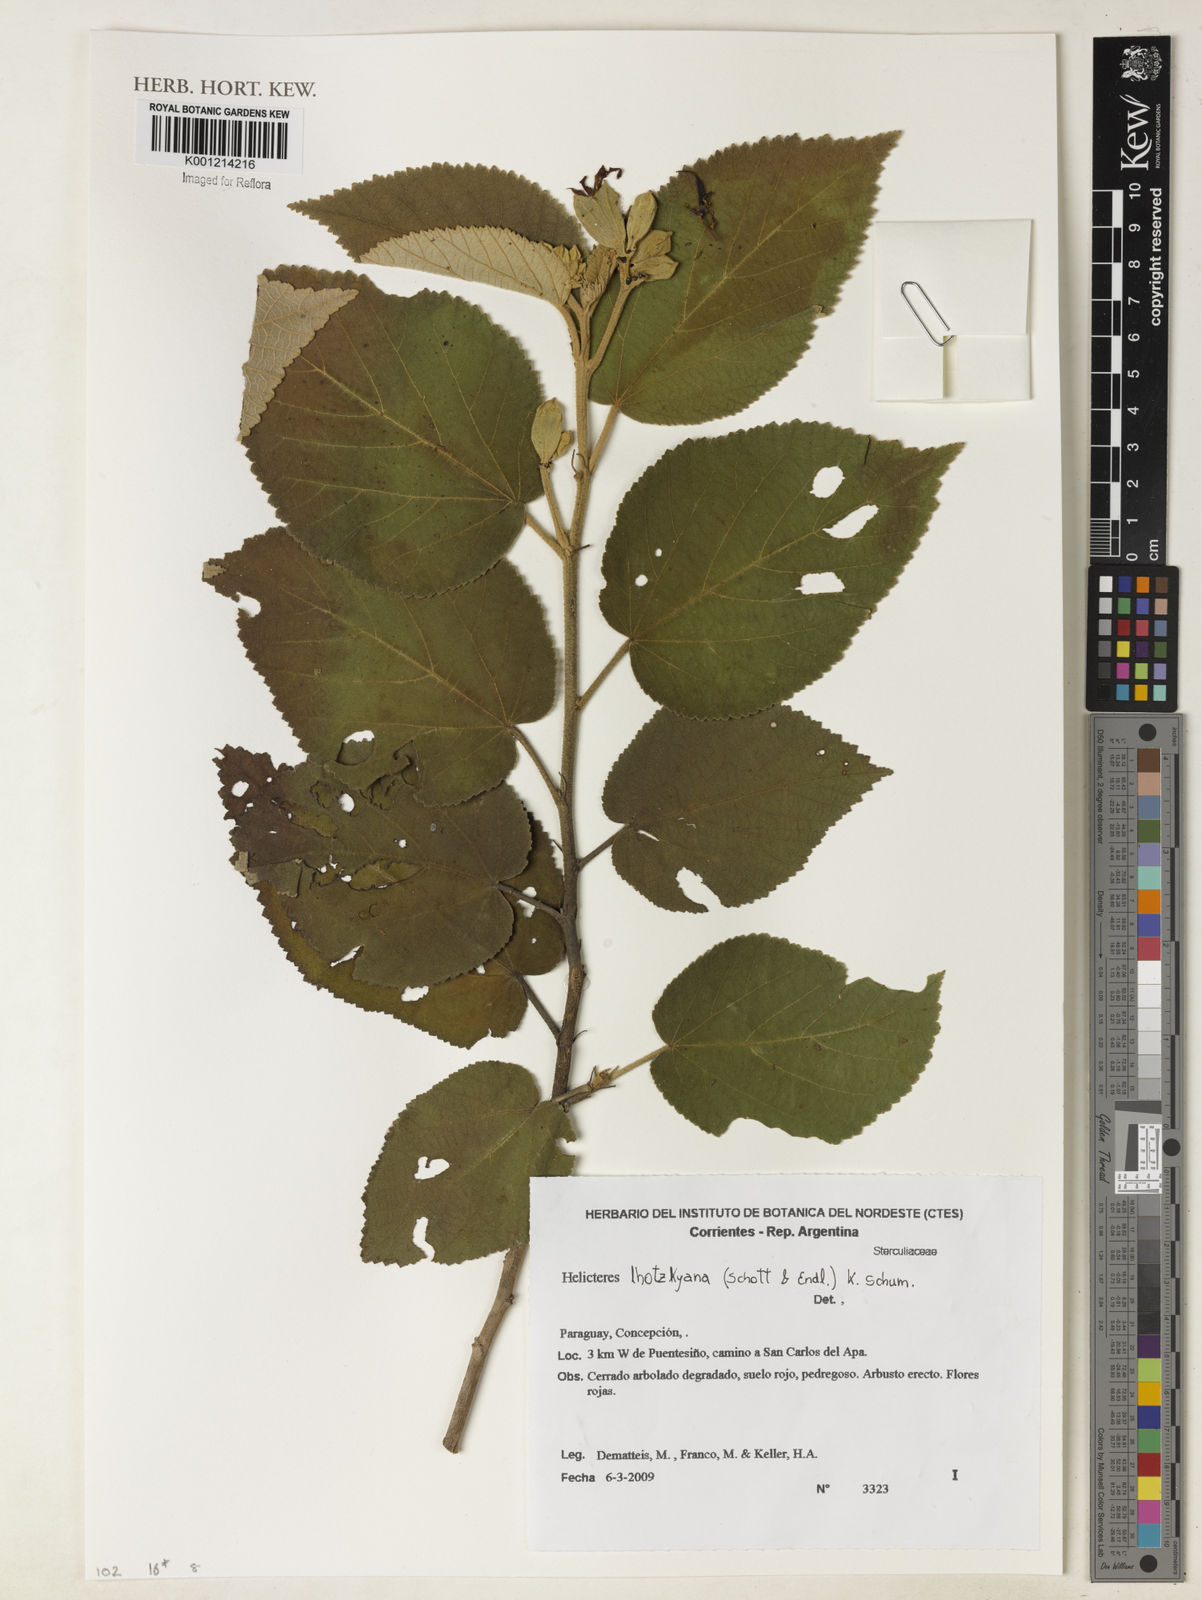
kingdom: Plantae
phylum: Tracheophyta
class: Magnoliopsida
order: Malvales
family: Malvaceae
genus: Helicteres
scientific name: Helicteres lhotzkyana
